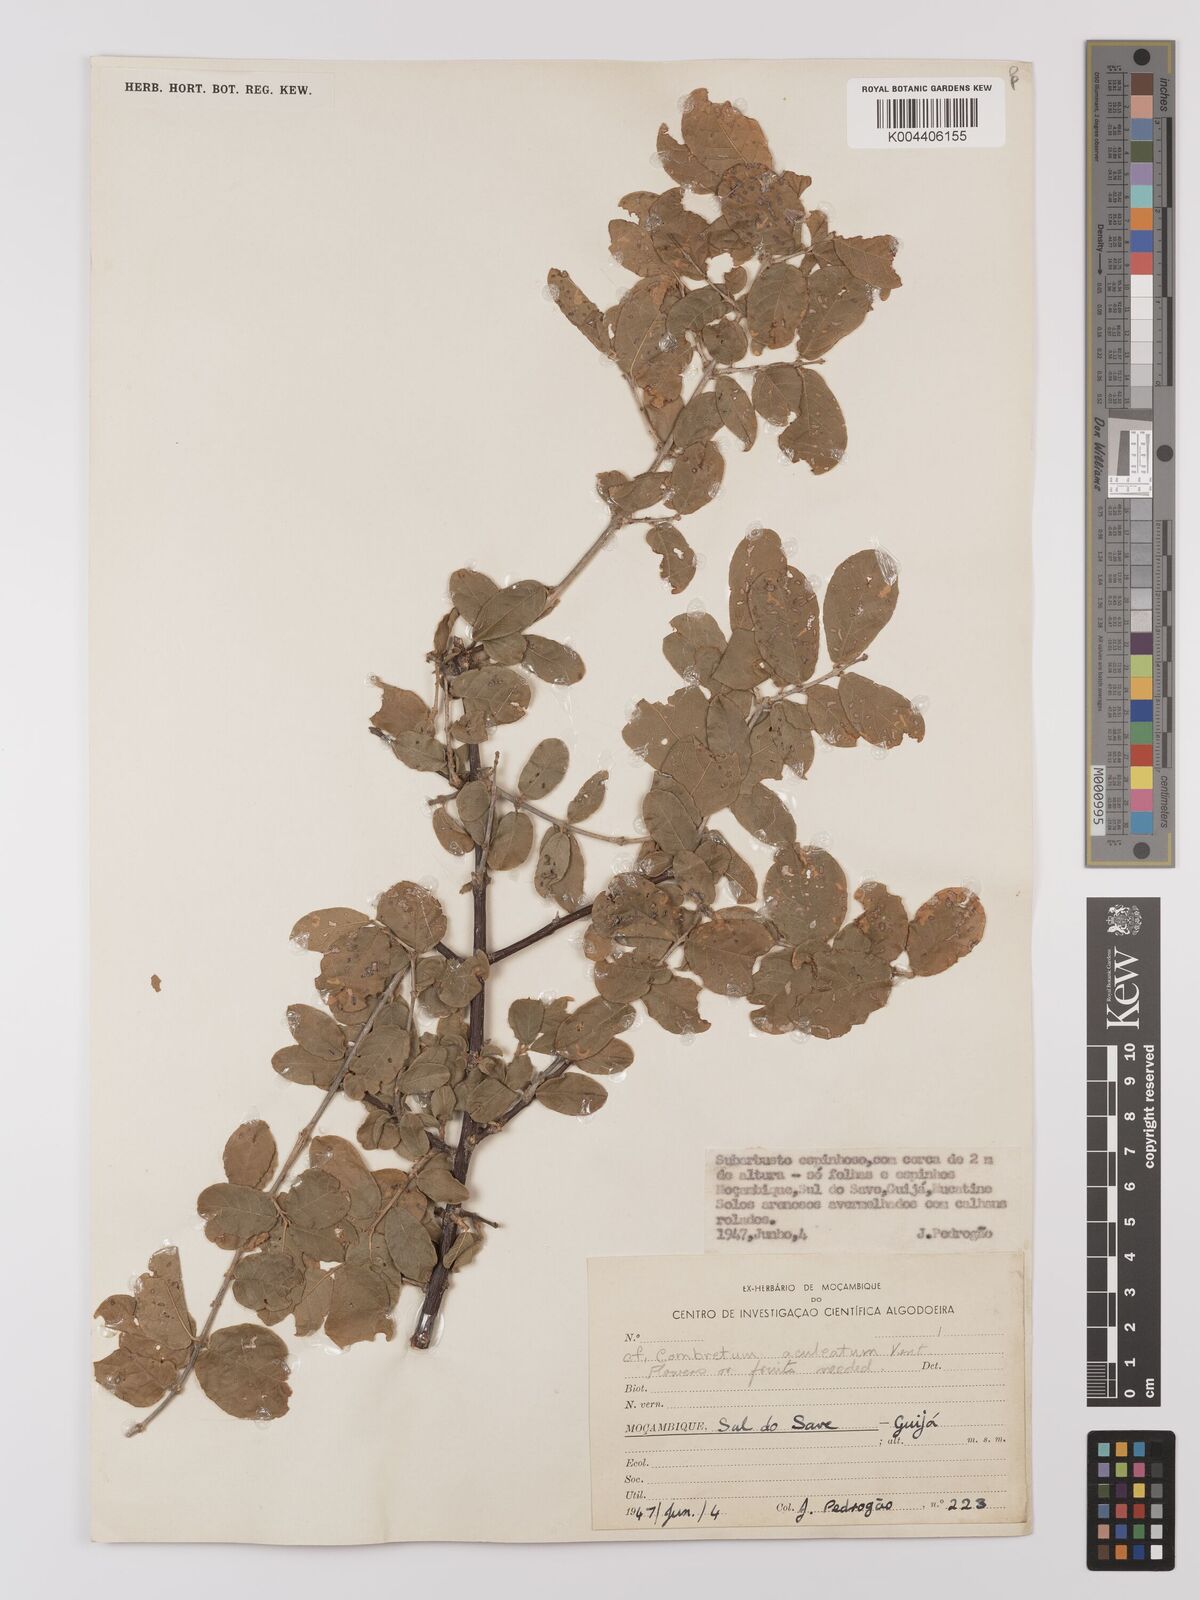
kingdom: Plantae
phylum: Tracheophyta
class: Magnoliopsida
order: Myrtales
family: Combretaceae
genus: Combretum
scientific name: Combretum
